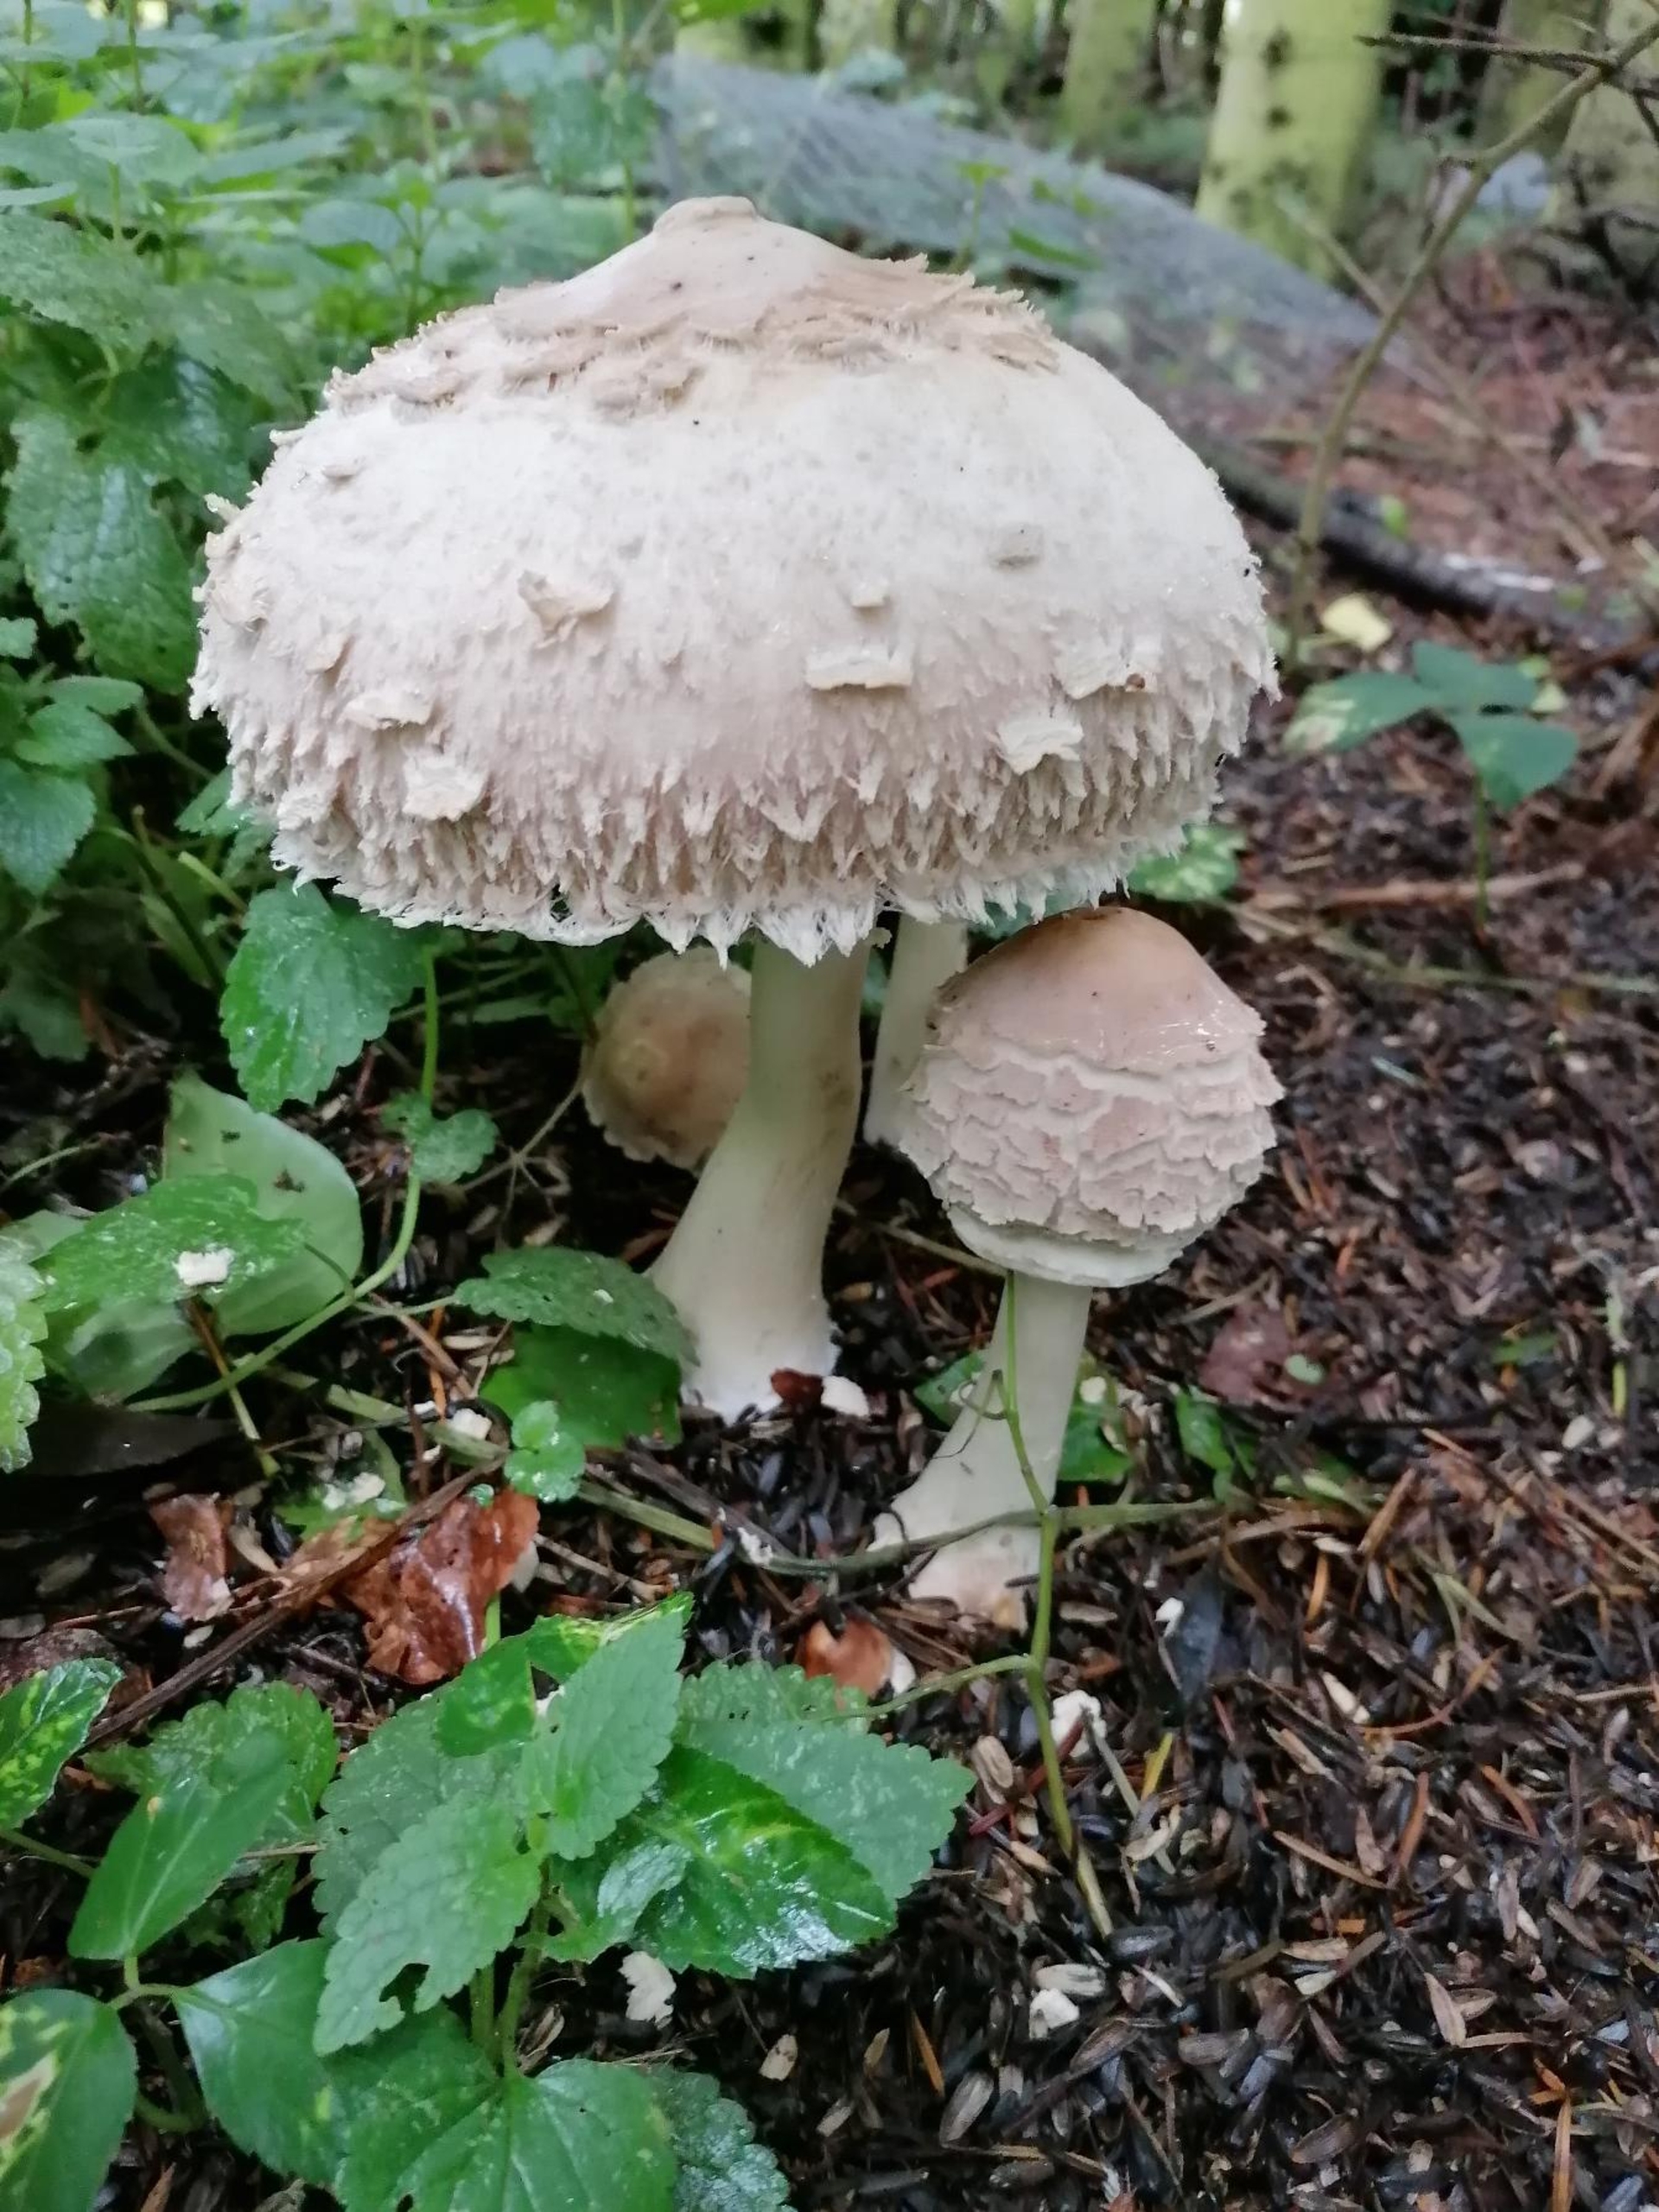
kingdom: Fungi
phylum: Basidiomycota
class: Agaricomycetes
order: Agaricales
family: Agaricaceae
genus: Chlorophyllum
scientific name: Chlorophyllum
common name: Rabarberhat
